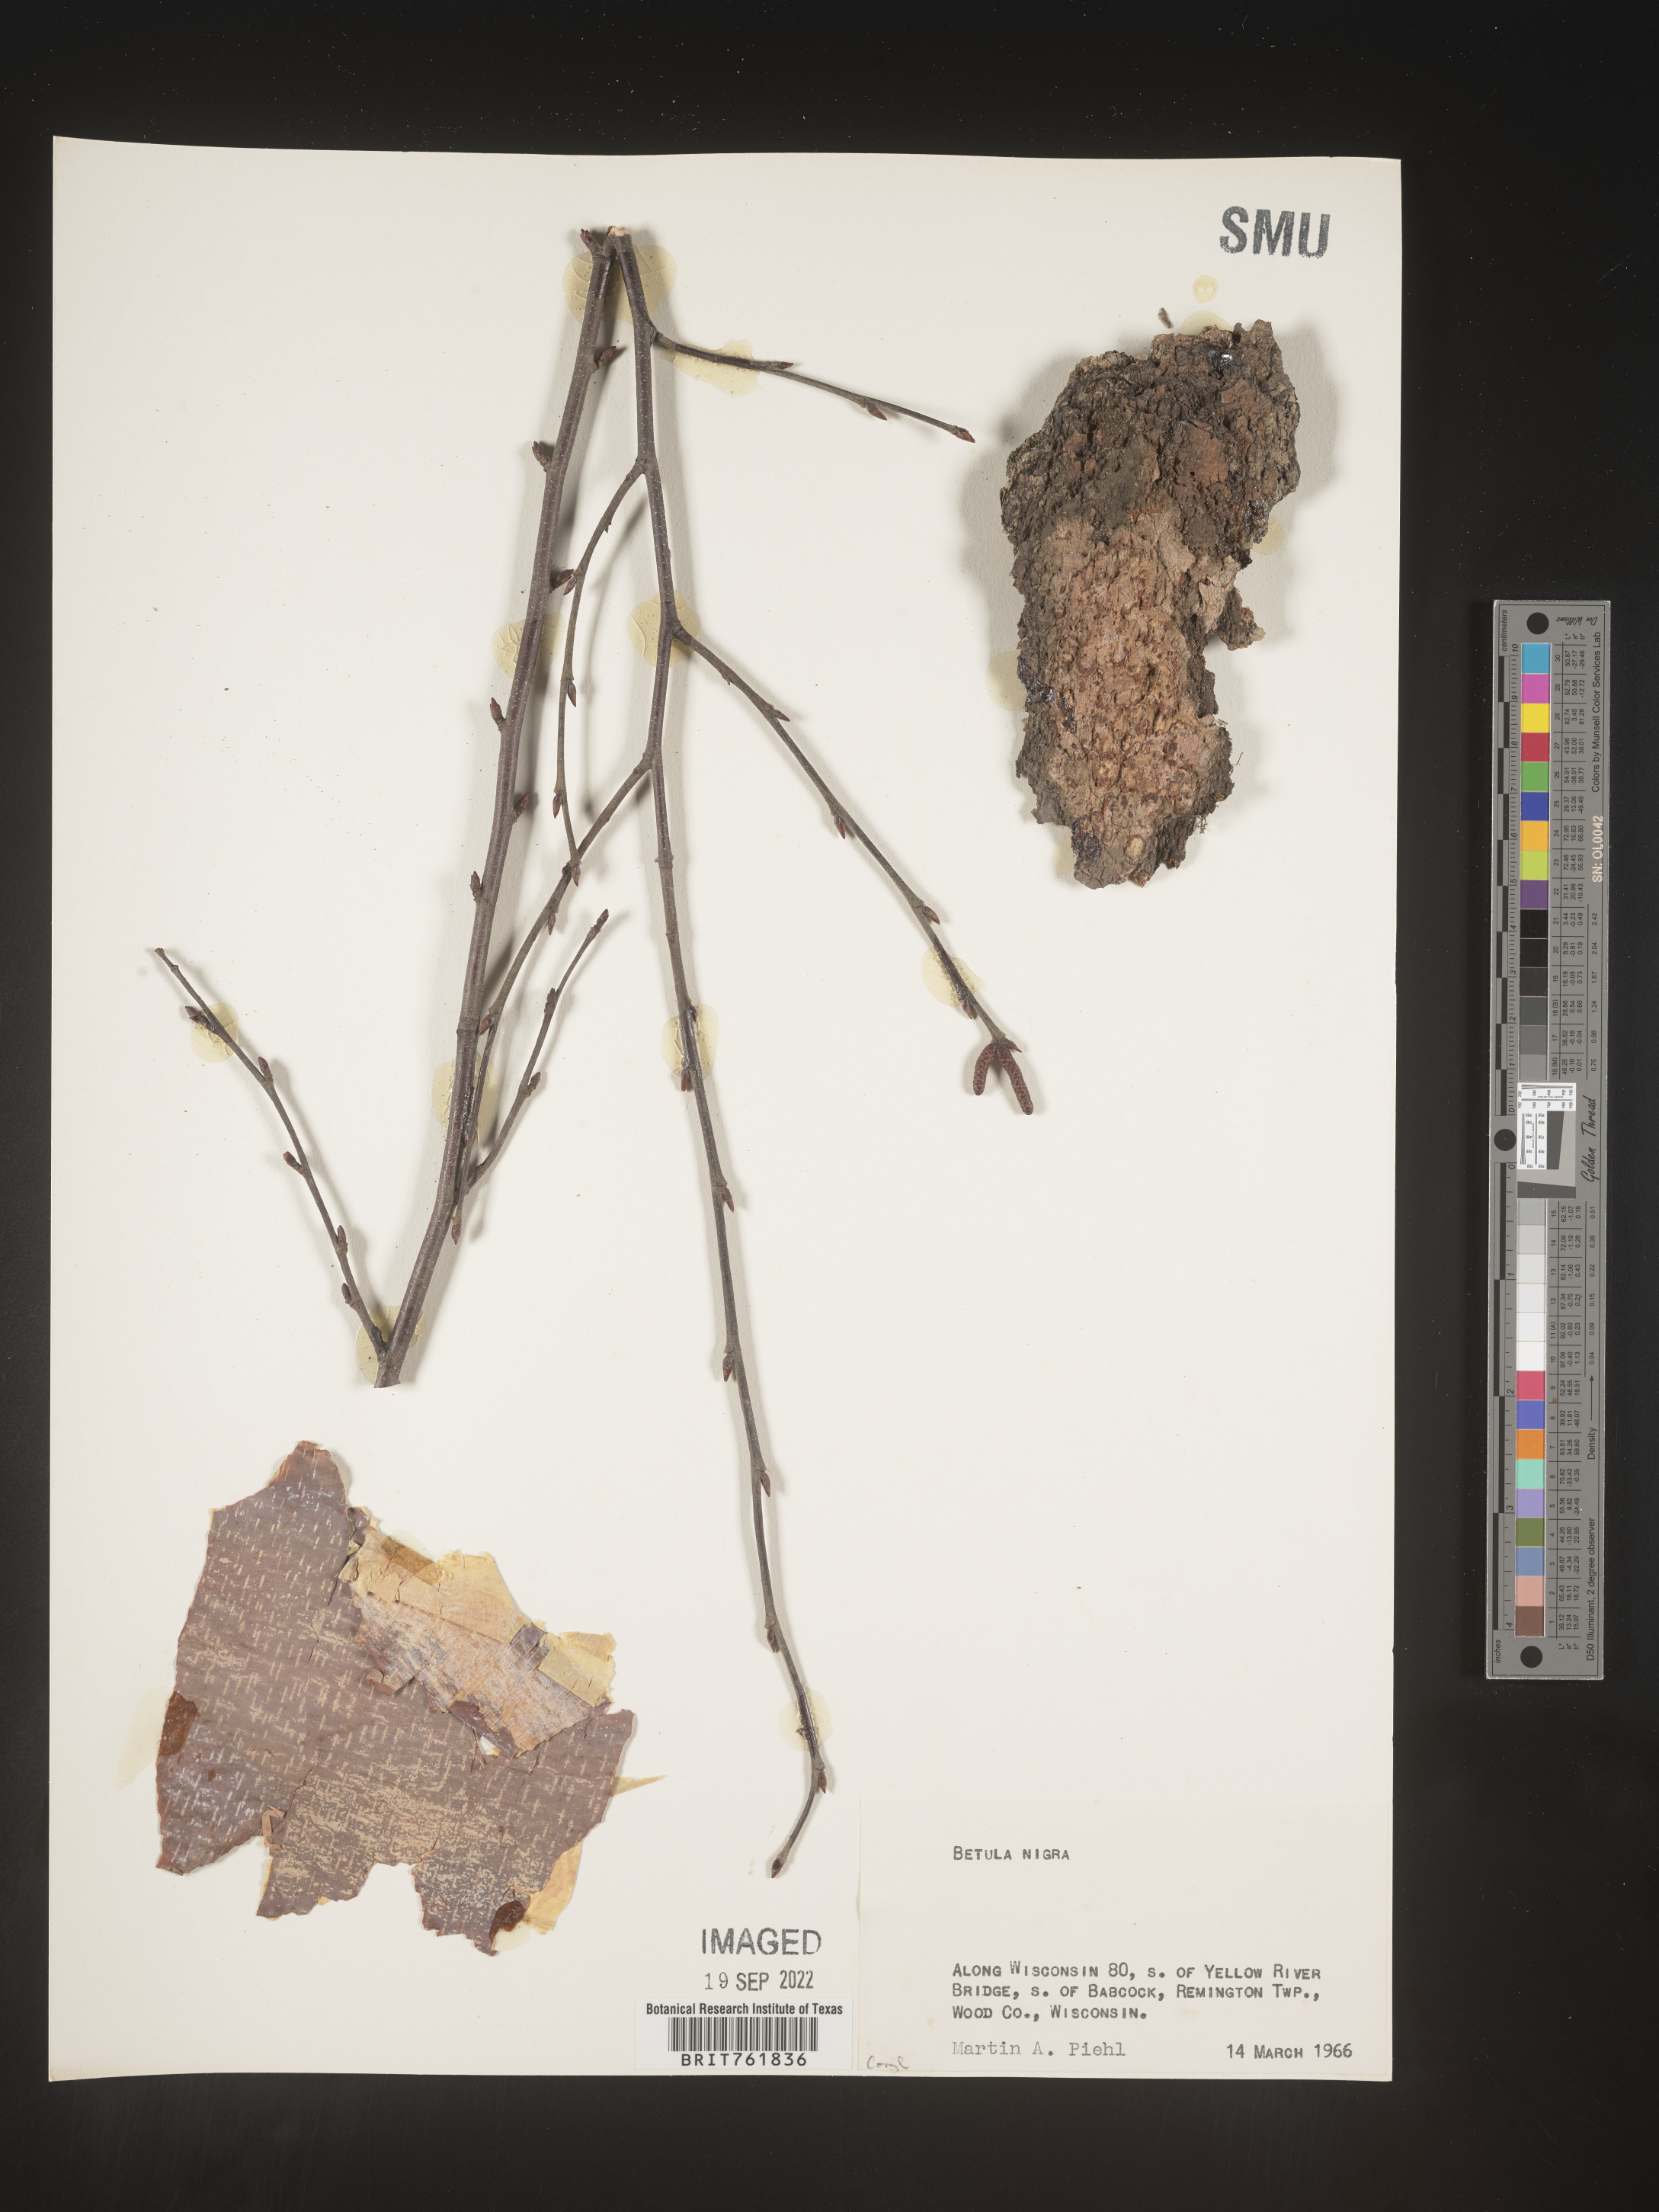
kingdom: Plantae
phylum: Tracheophyta
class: Magnoliopsida
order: Fagales
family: Betulaceae
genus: Betula
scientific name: Betula nigra
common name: Black birch
